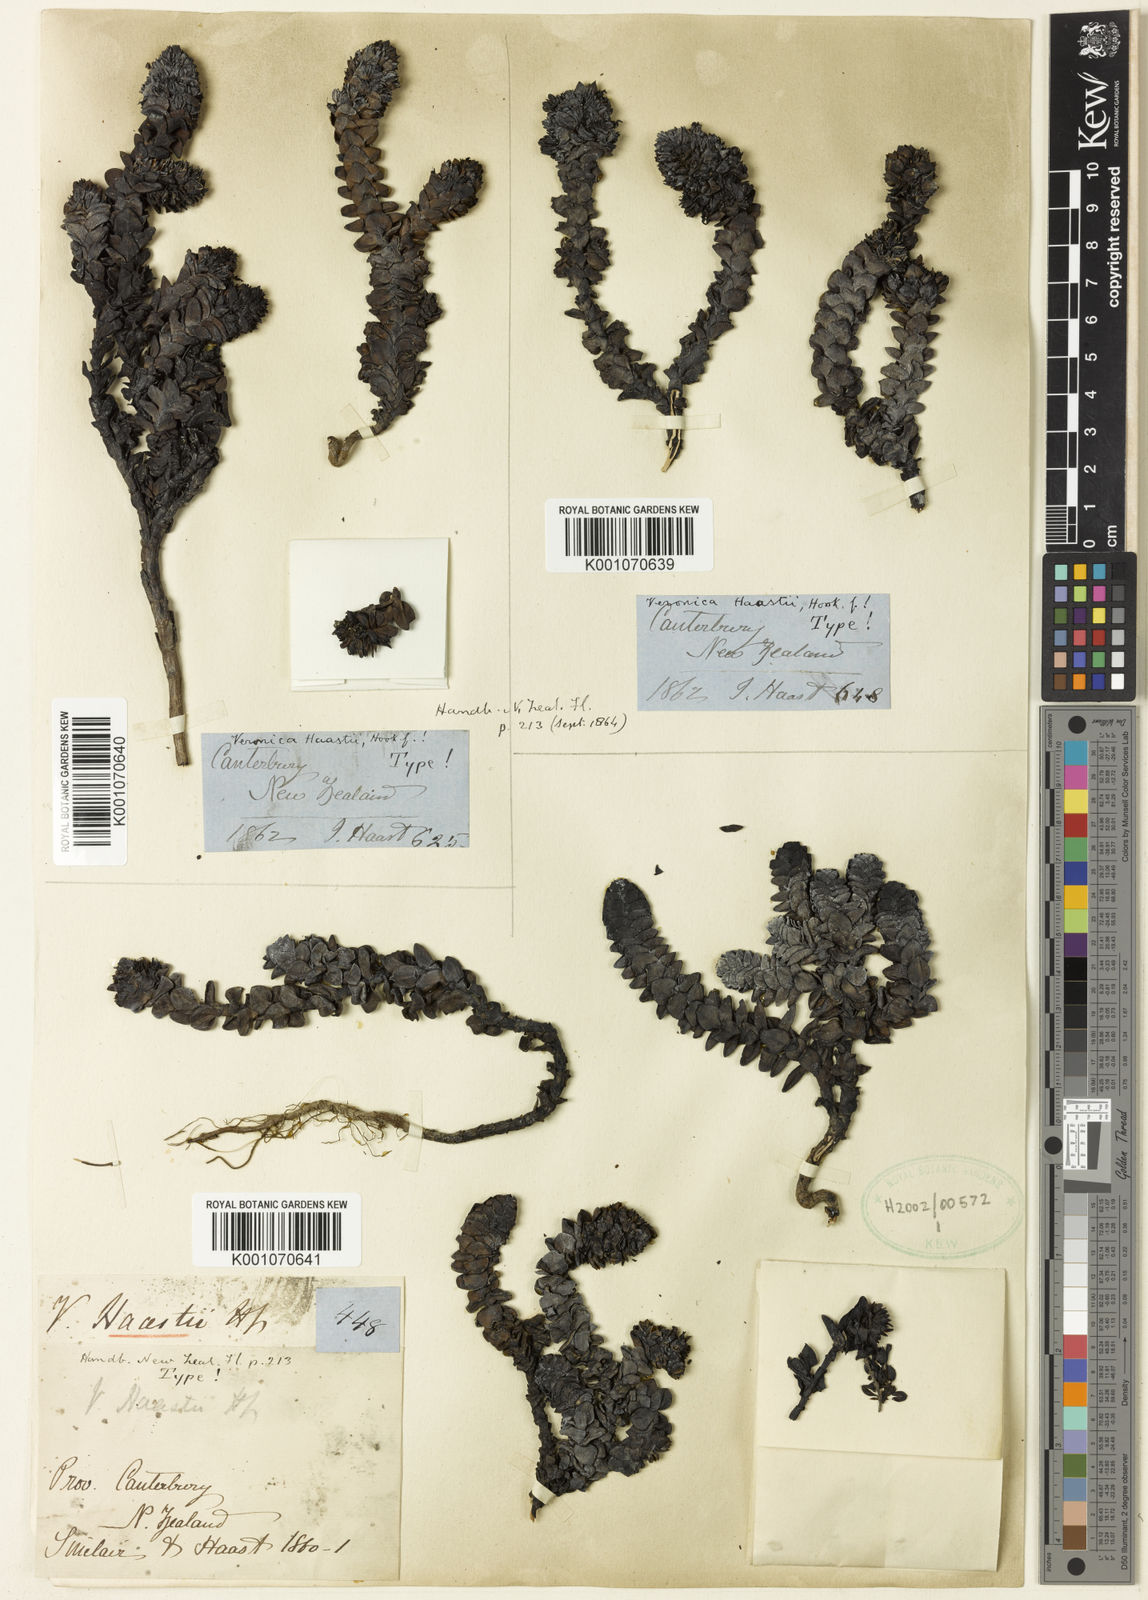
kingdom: Plantae
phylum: Tracheophyta
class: Magnoliopsida
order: Lamiales
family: Plantaginaceae
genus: Veronica
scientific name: Veronica haastii
